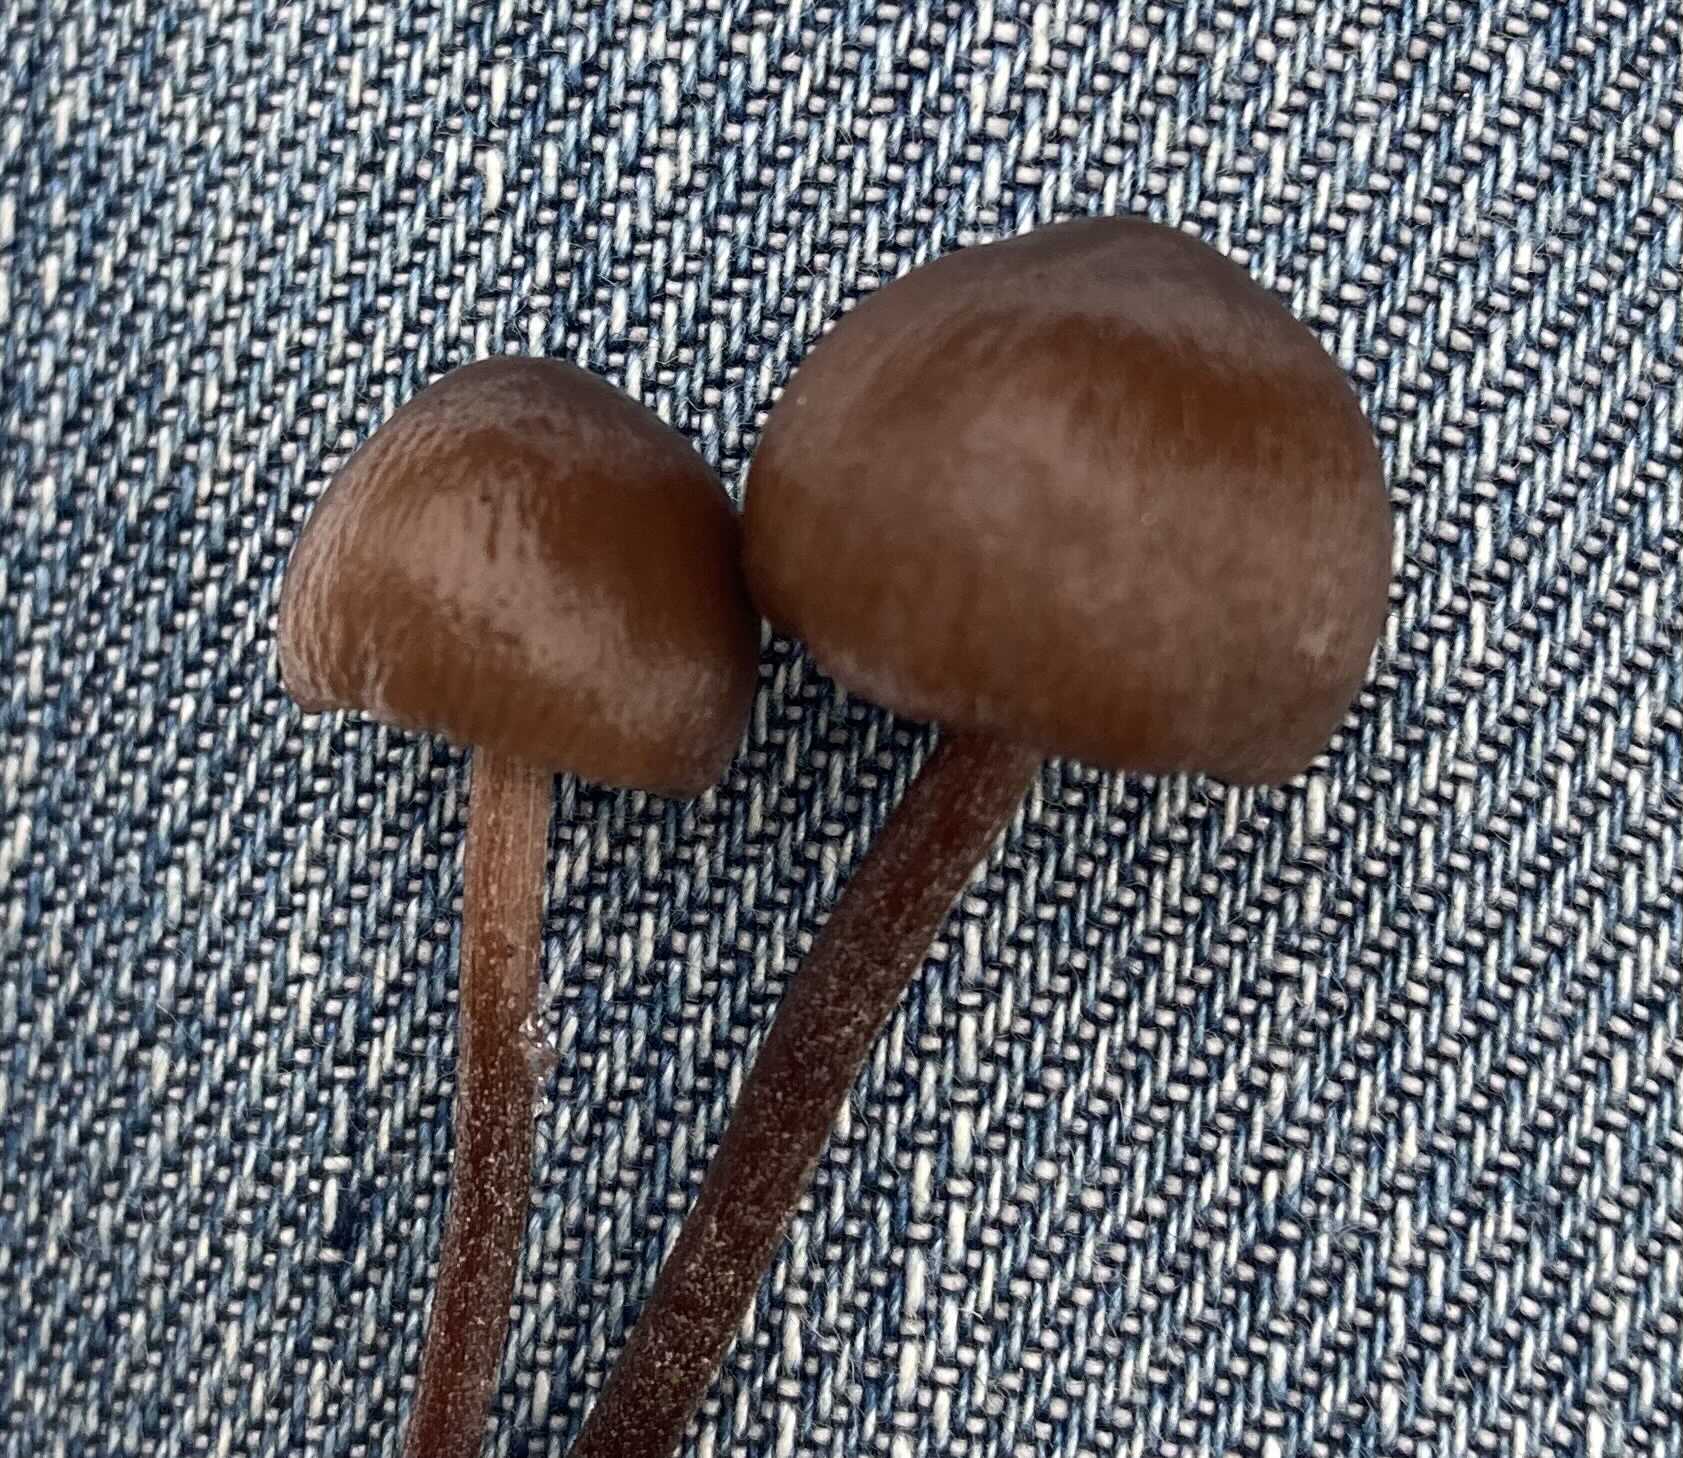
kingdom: Fungi
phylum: Basidiomycota
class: Agaricomycetes
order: Agaricales
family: Bolbitiaceae
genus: Panaeolus
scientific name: Panaeolus acuminatus
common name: høj glanshat
